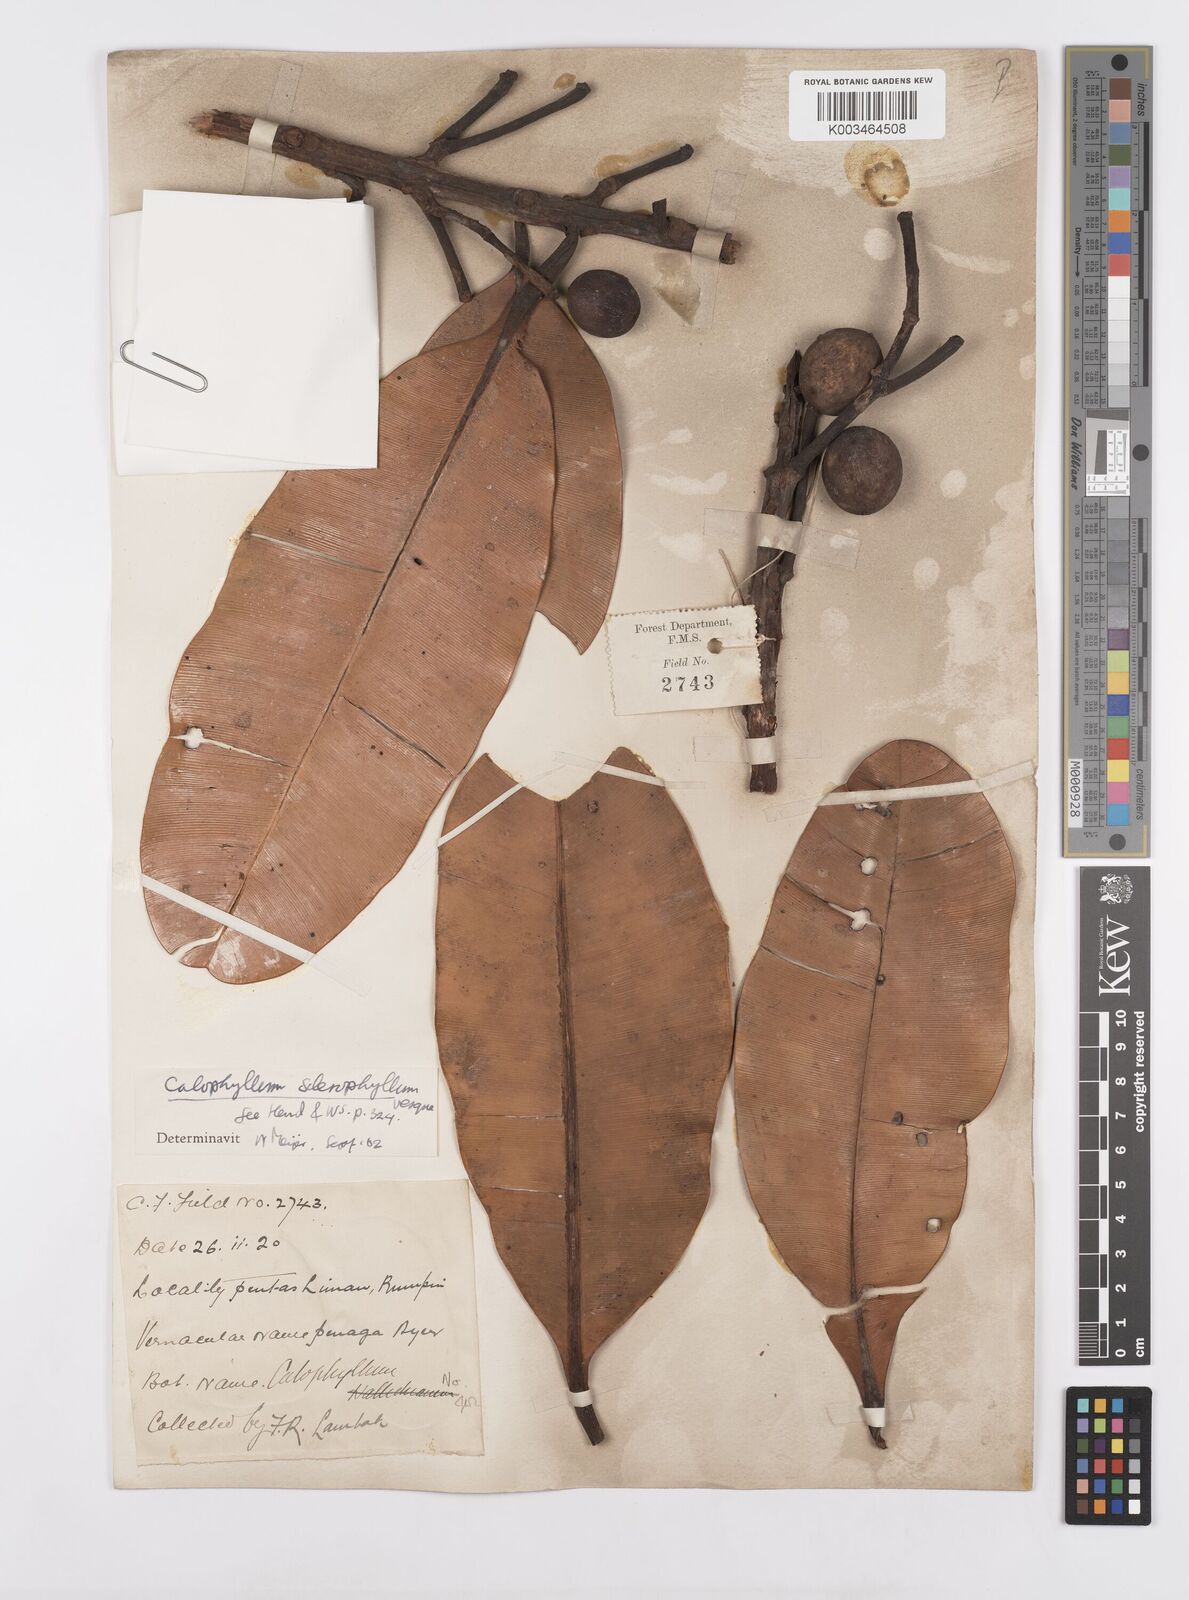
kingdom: Plantae
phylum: Tracheophyta
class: Magnoliopsida
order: Malpighiales
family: Calophyllaceae
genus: Calophyllum
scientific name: Calophyllum sclerophyllum
